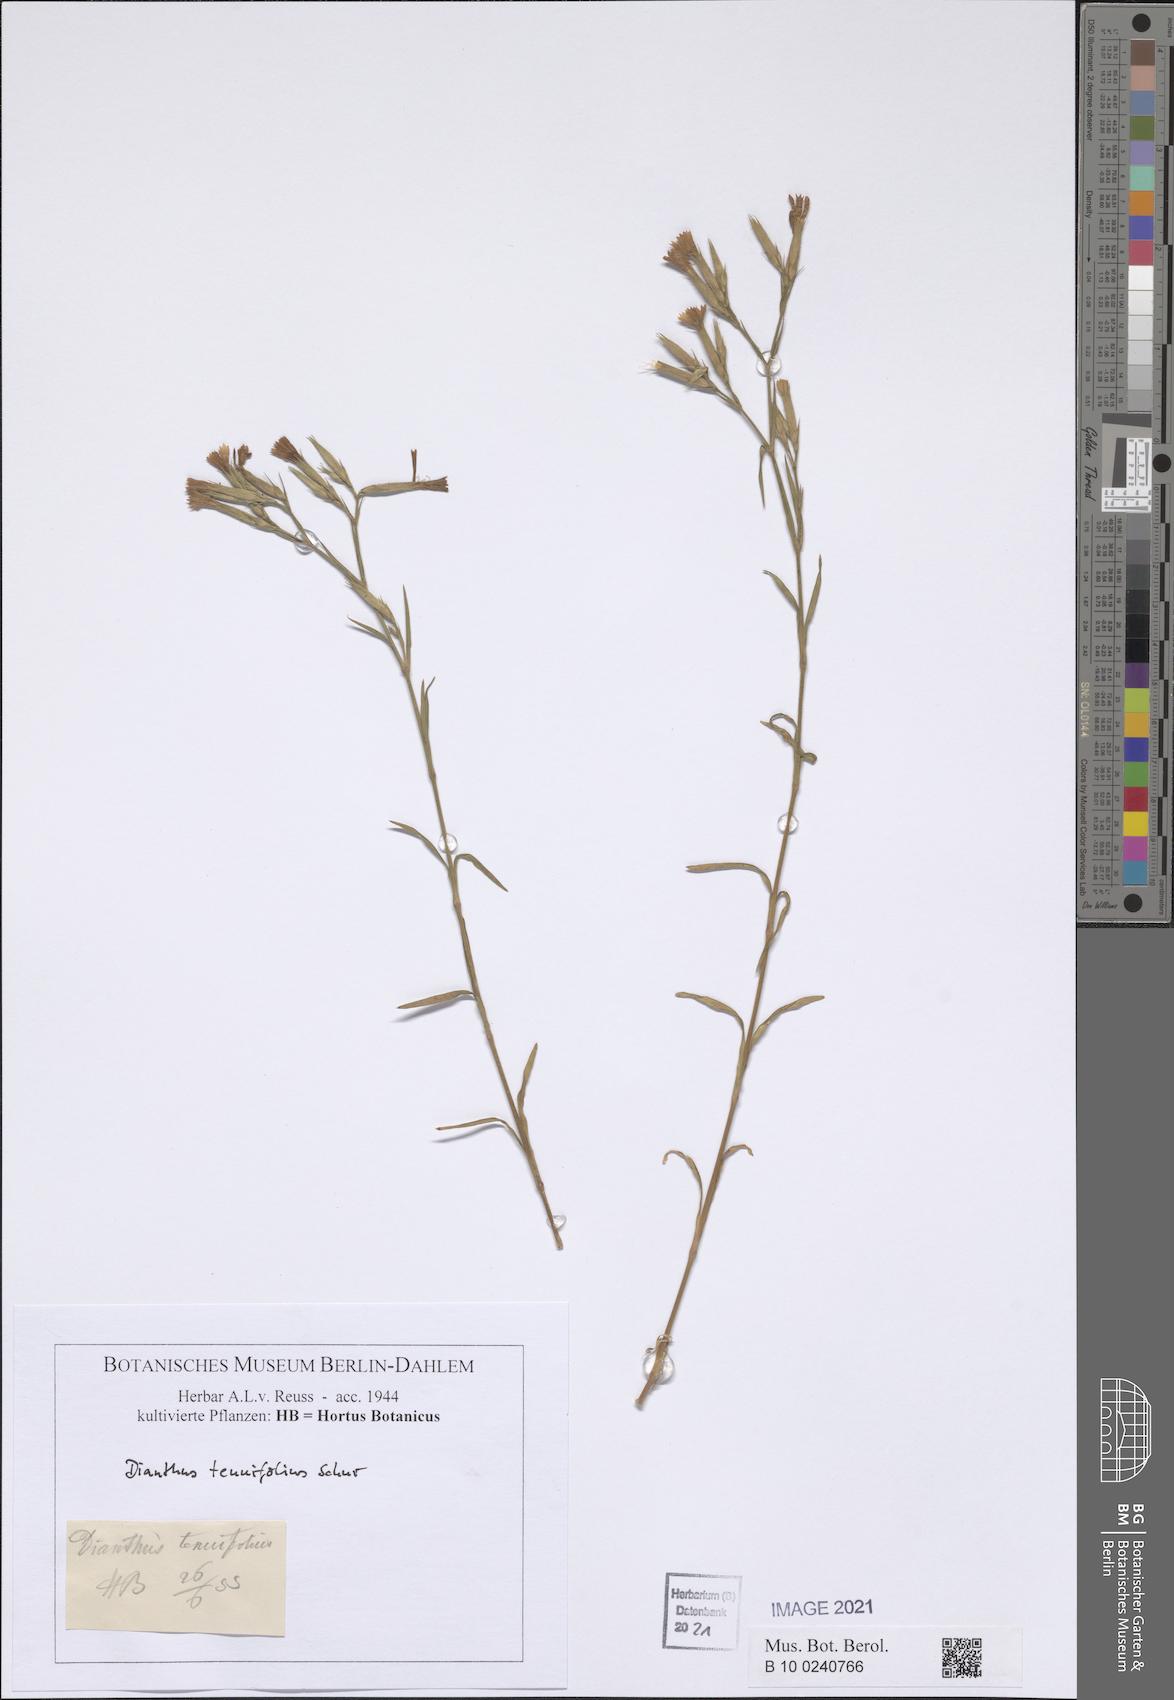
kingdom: Plantae
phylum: Tracheophyta
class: Magnoliopsida
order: Caryophyllales
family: Caryophyllaceae
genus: Dianthus
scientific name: Dianthus carthusianorum
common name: Carthusian pink
